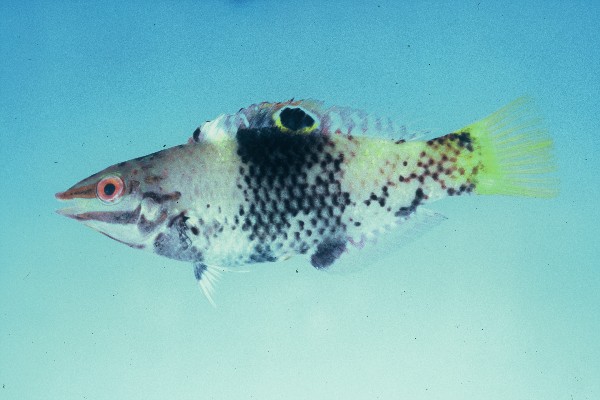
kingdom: Animalia
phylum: Chordata
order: Perciformes
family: Labridae
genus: Halichoeres
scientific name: Halichoeres hortulanus
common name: Checkerboard wrasse
